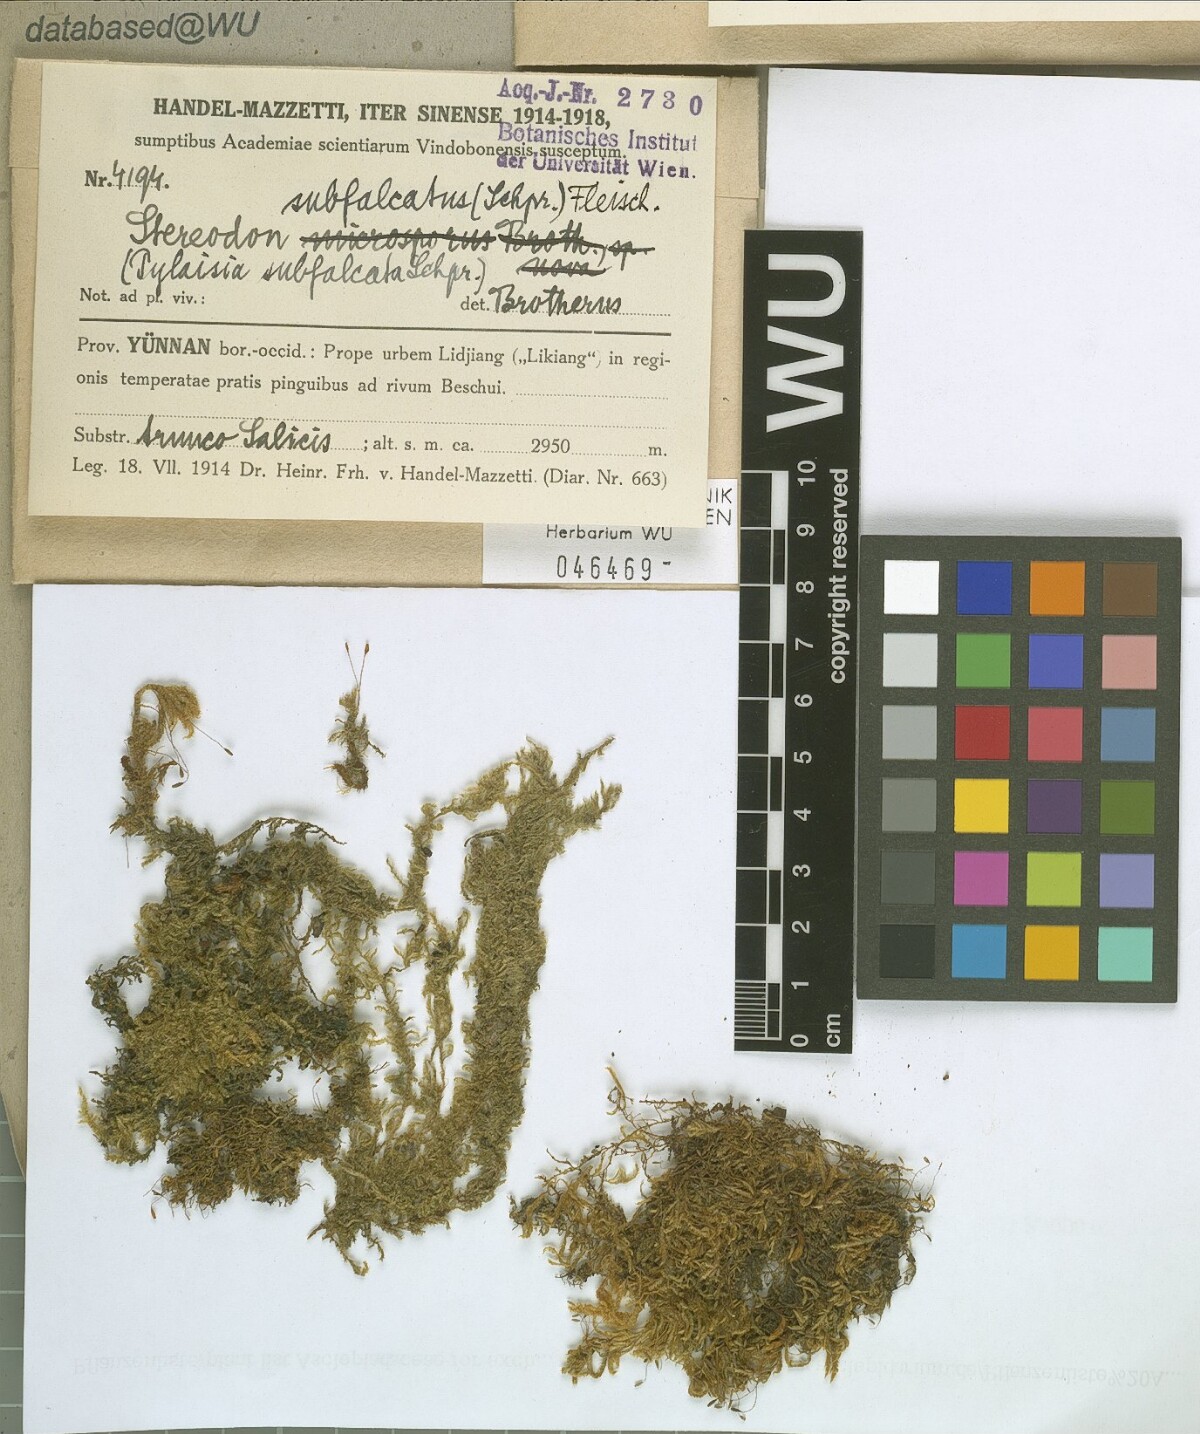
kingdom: Plantae
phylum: Bryophyta
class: Bryopsida
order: Hypnales
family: Pylaisiaceae
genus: Pylaisia
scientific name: Pylaisia falcata
